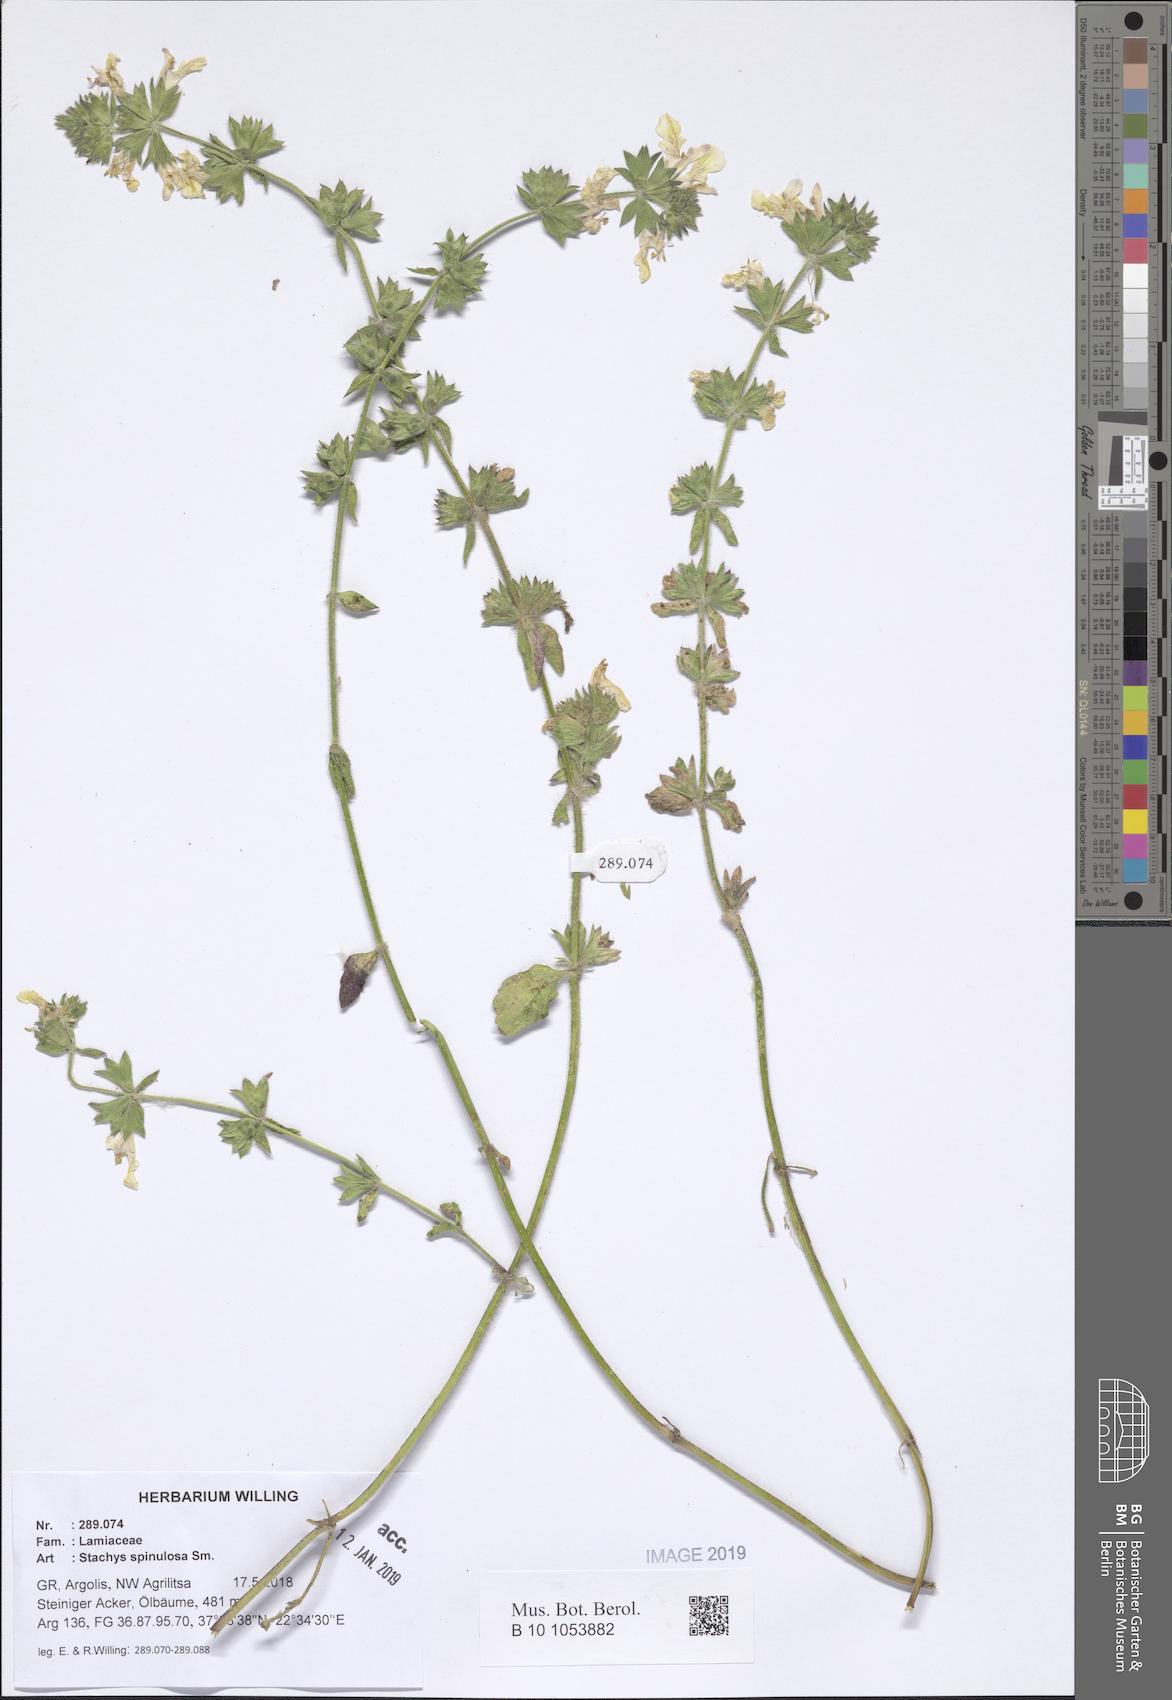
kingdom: Plantae
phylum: Tracheophyta
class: Magnoliopsida
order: Lamiales
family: Lamiaceae
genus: Stachys
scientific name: Stachys spinulosa
